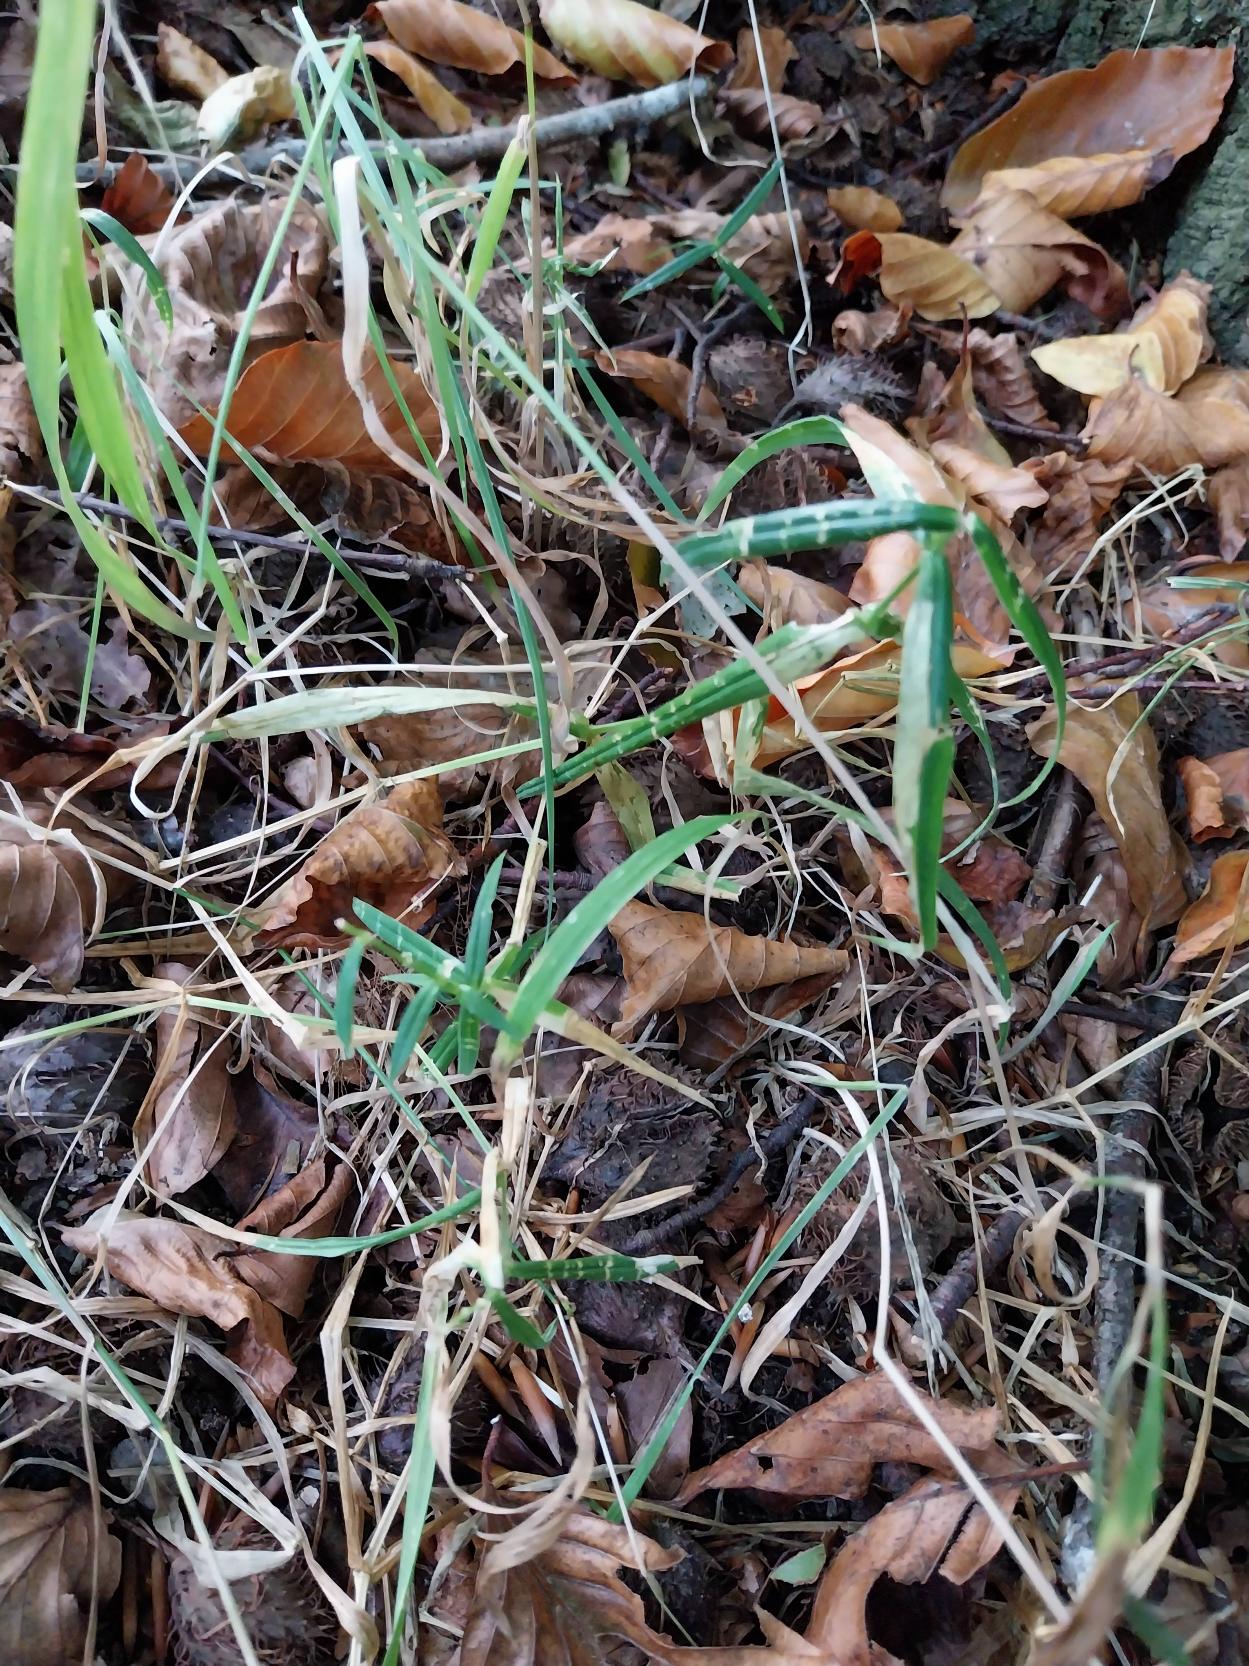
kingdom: Plantae
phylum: Tracheophyta
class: Magnoliopsida
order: Caryophyllales
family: Caryophyllaceae
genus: Rabelera
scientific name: Rabelera holostea
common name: Stor fladstjerne
